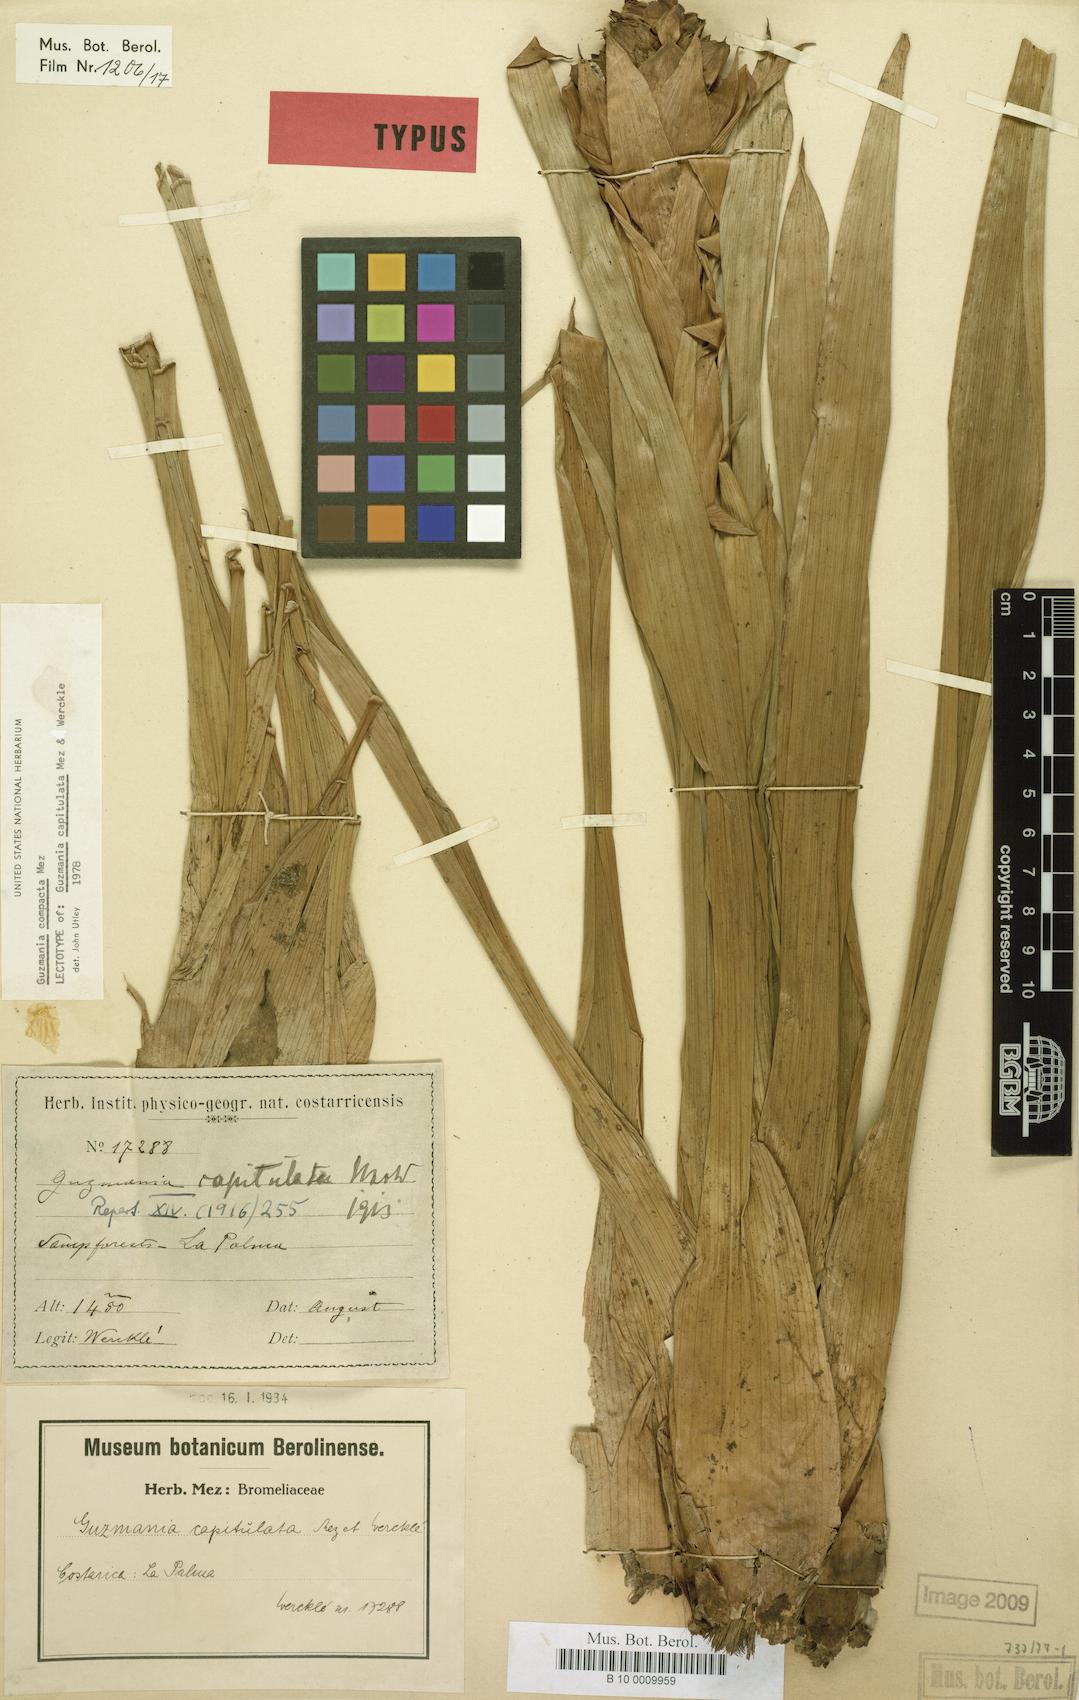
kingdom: Plantae
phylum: Tracheophyta
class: Liliopsida
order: Poales
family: Bromeliaceae
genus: Guzmania
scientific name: Guzmania compacta
